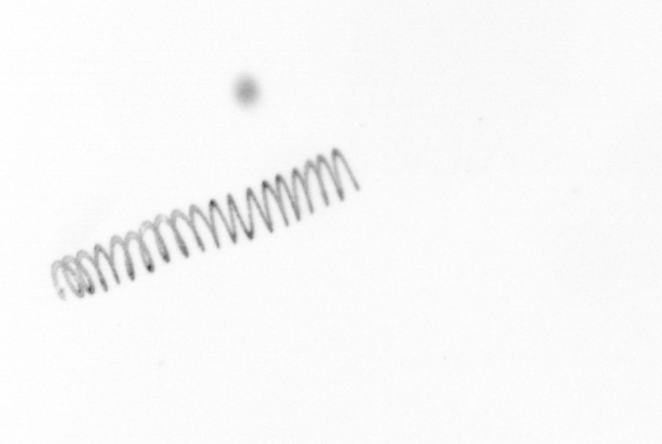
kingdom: Chromista
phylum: Ochrophyta
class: Bacillariophyceae
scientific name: Bacillariophyceae
